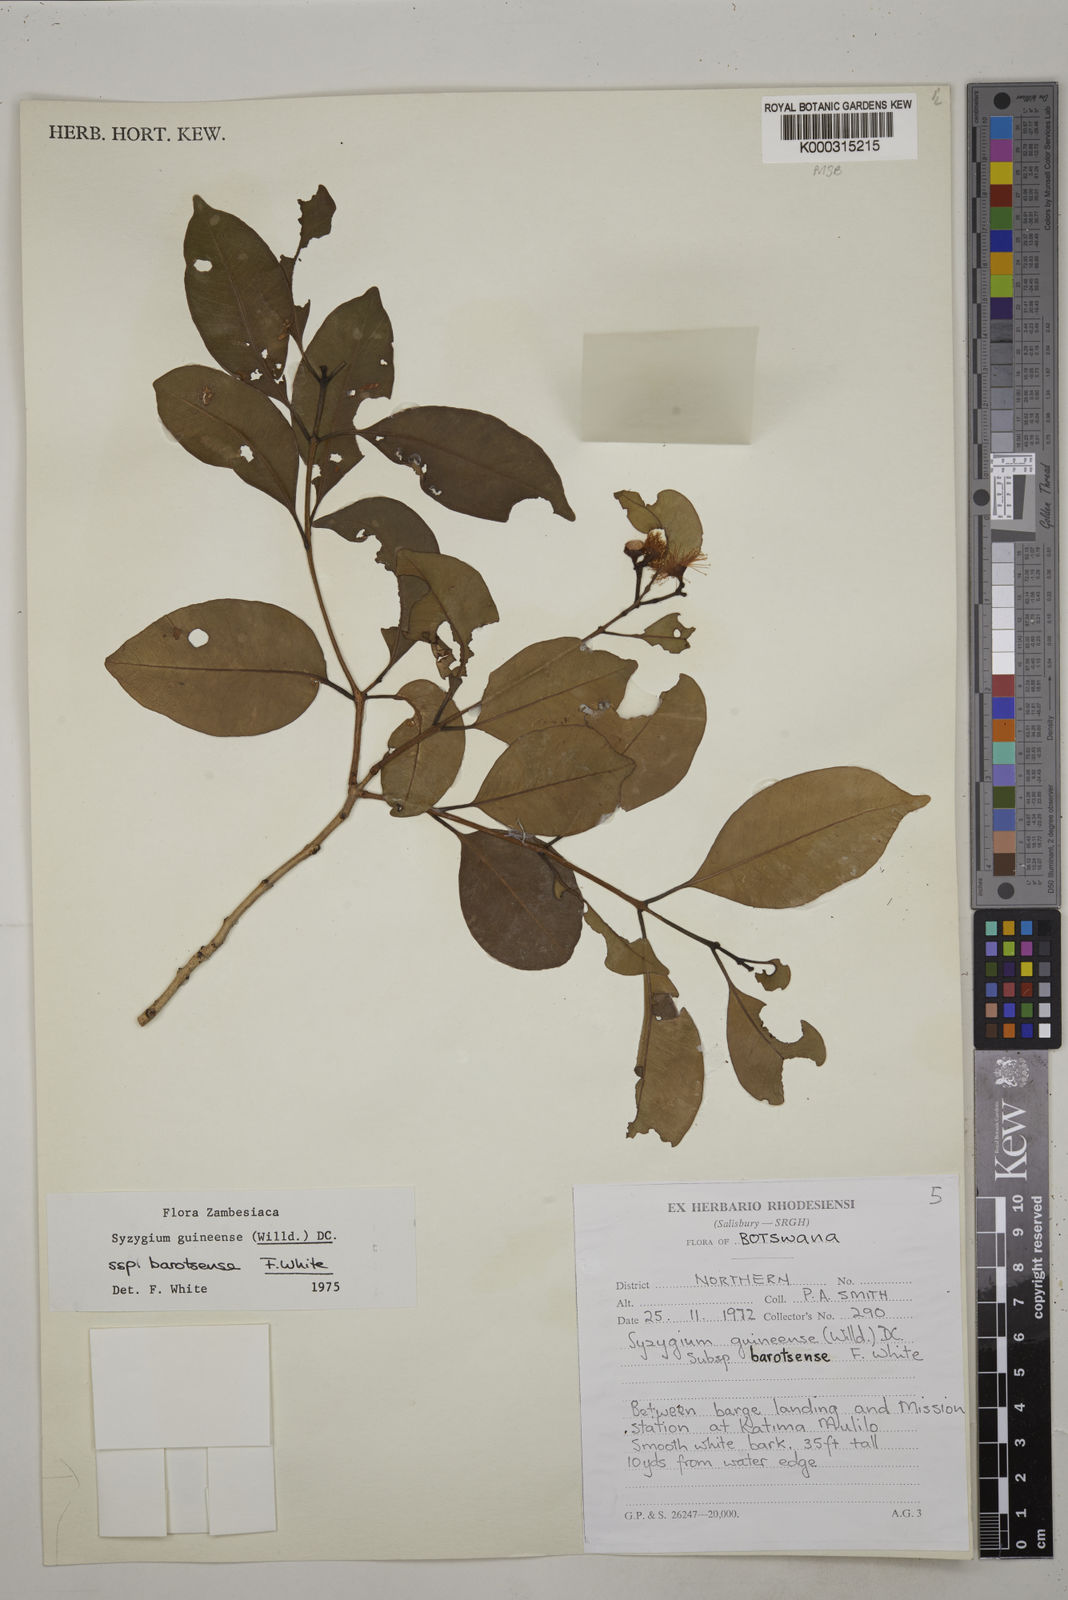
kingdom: Plantae
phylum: Tracheophyta
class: Magnoliopsida
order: Myrtales
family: Myrtaceae
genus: Syzygium
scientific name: Syzygium guineense
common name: Water-pear
